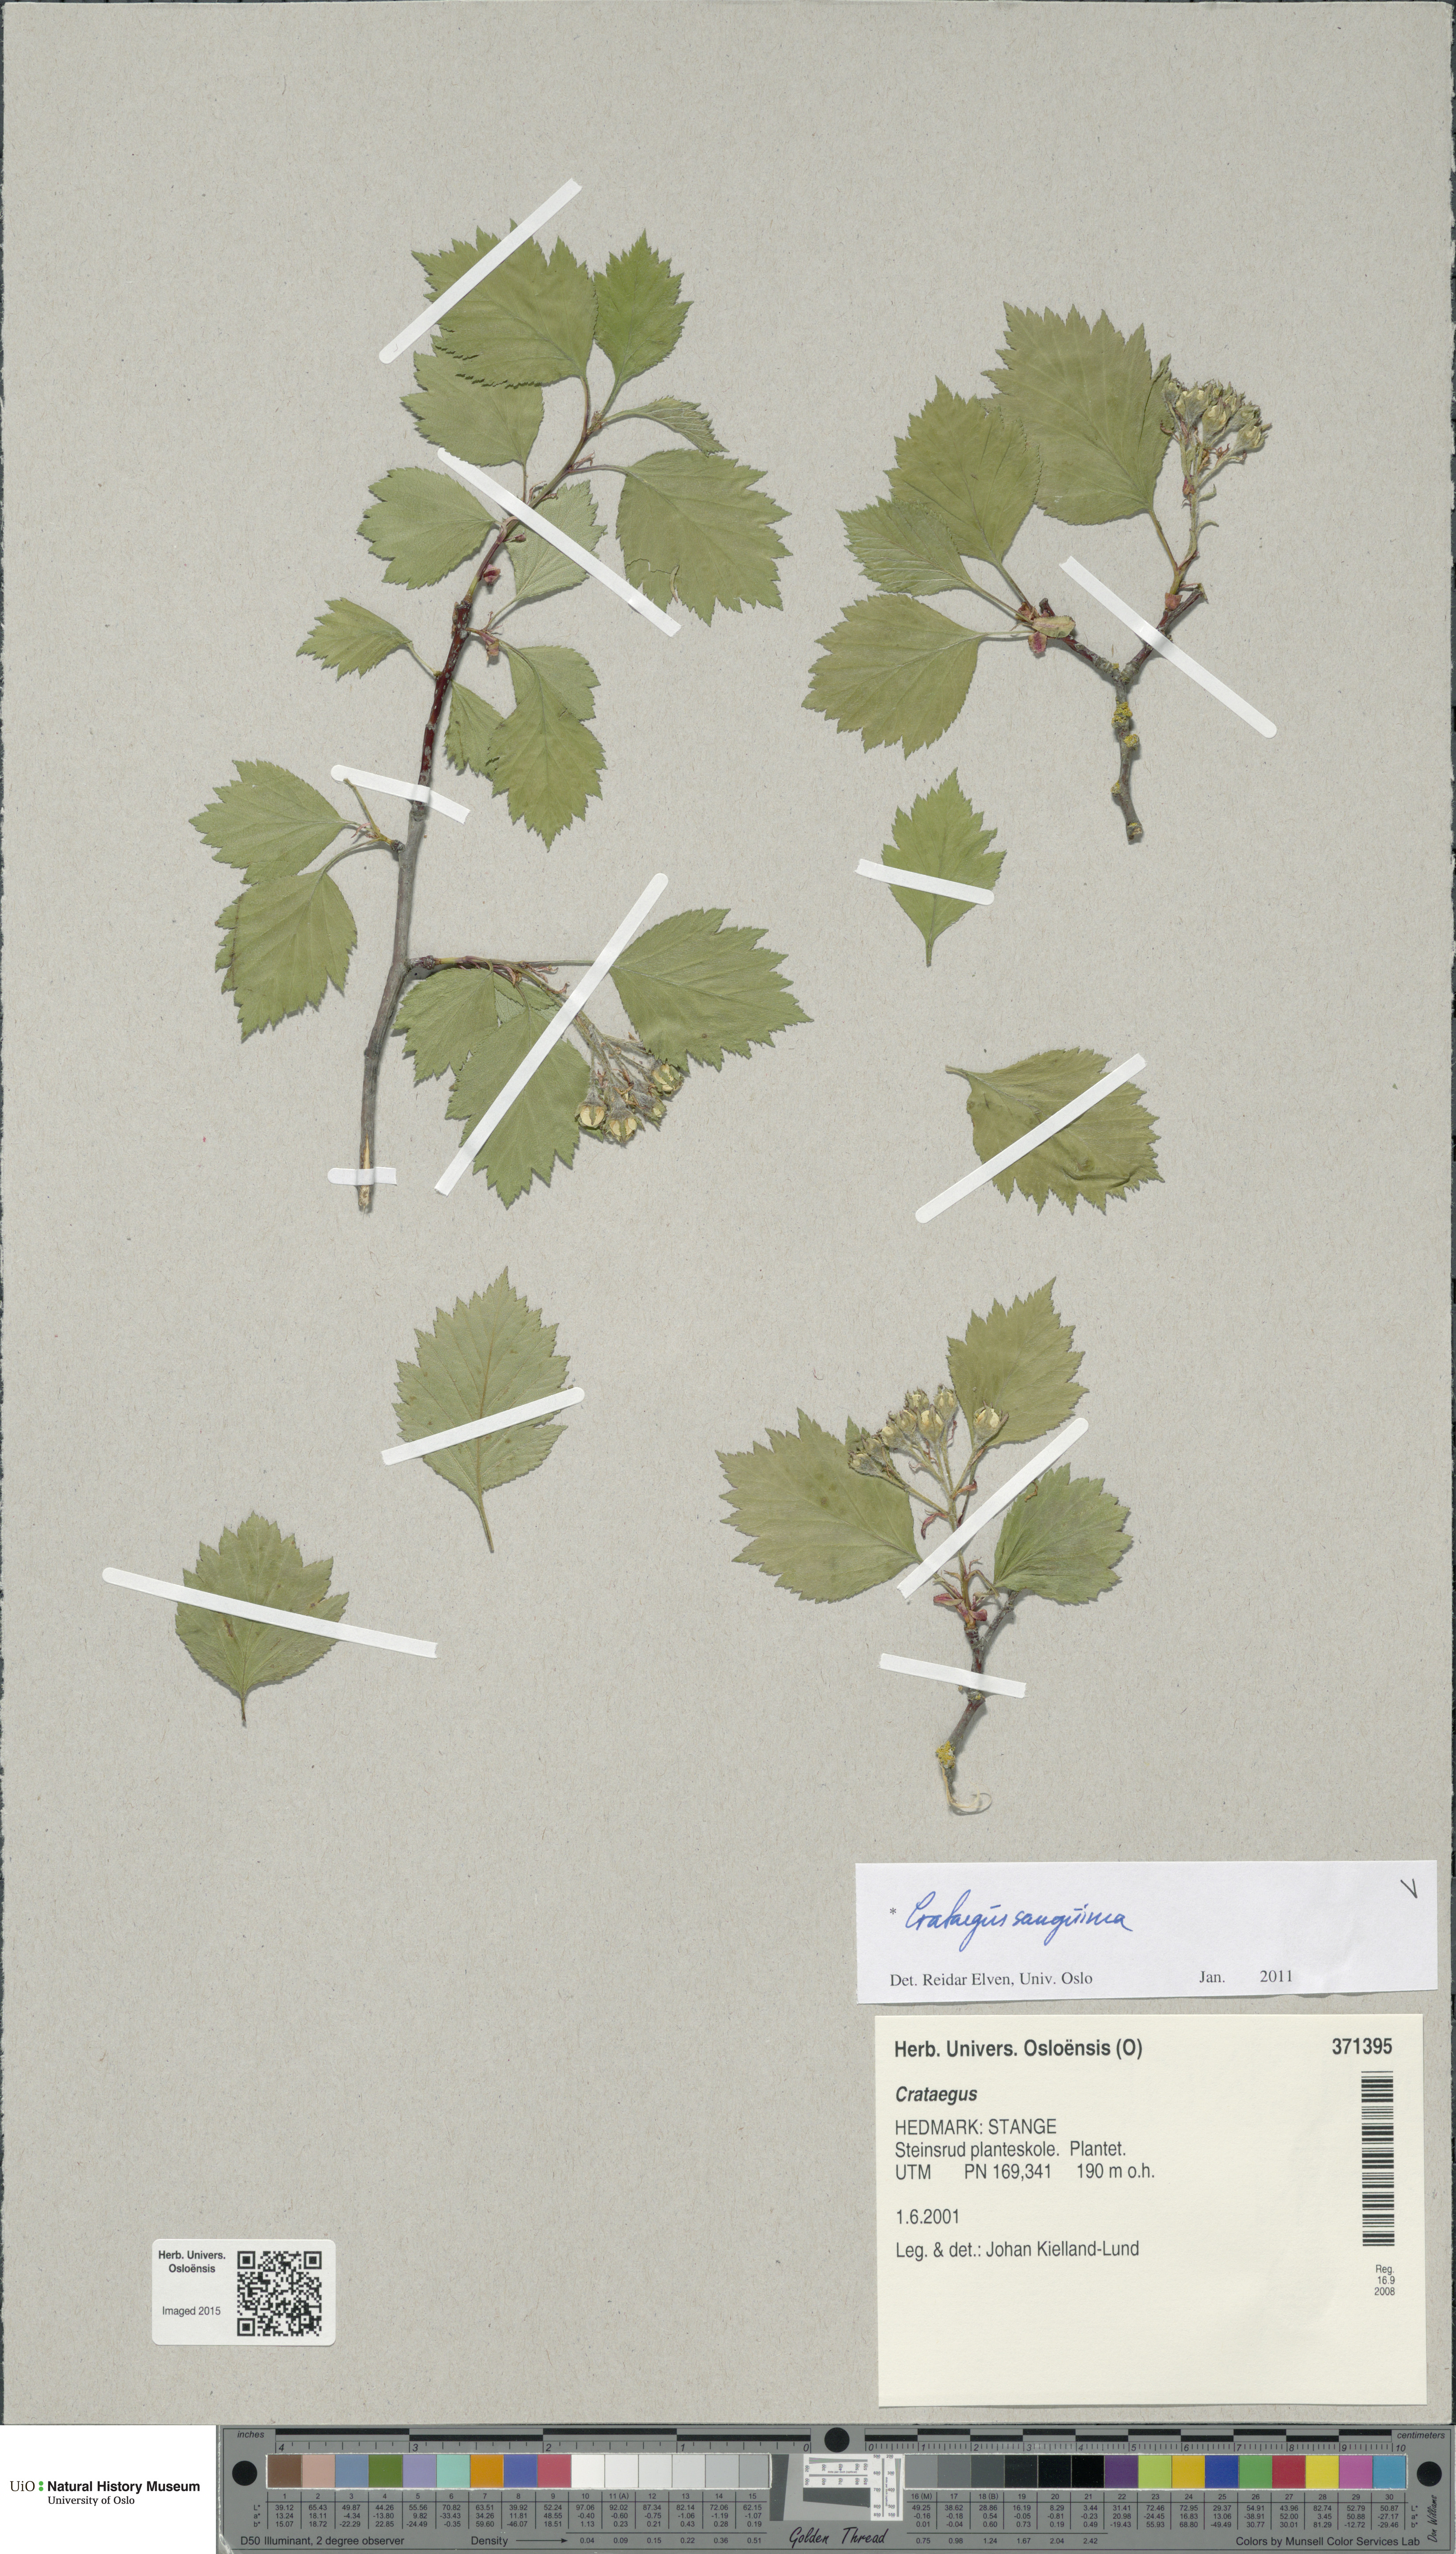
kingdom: Plantae
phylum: Tracheophyta
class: Magnoliopsida
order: Rosales
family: Rosaceae
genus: Crataegus
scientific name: Crataegus sanguinea
